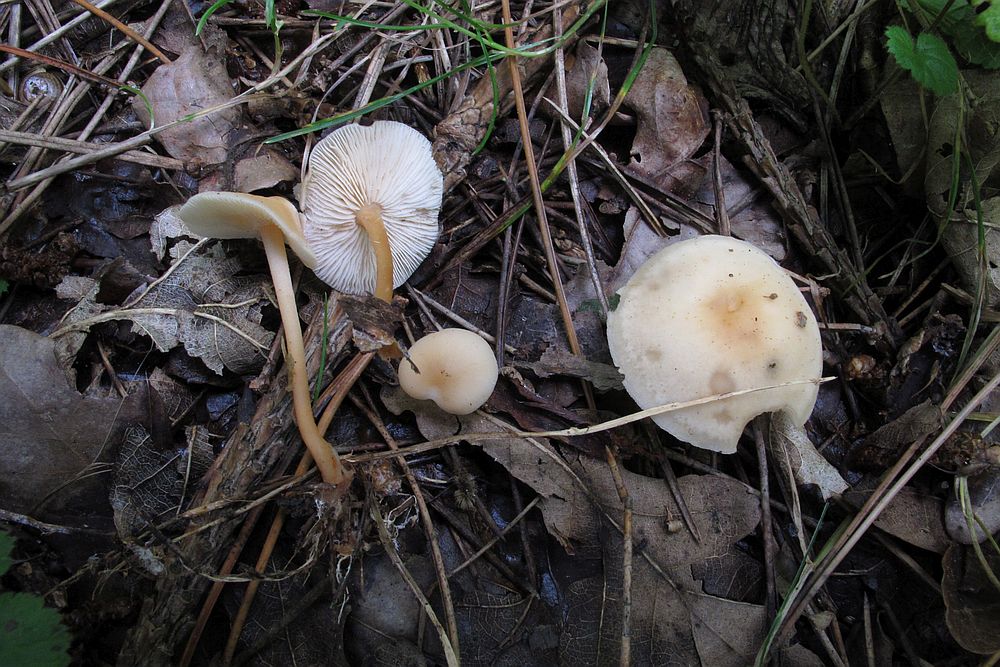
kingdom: Fungi
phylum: Basidiomycota
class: Agaricomycetes
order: Agaricales
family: Omphalotaceae
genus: Gymnopus
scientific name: Gymnopus aquosus
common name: bleg fladhat
